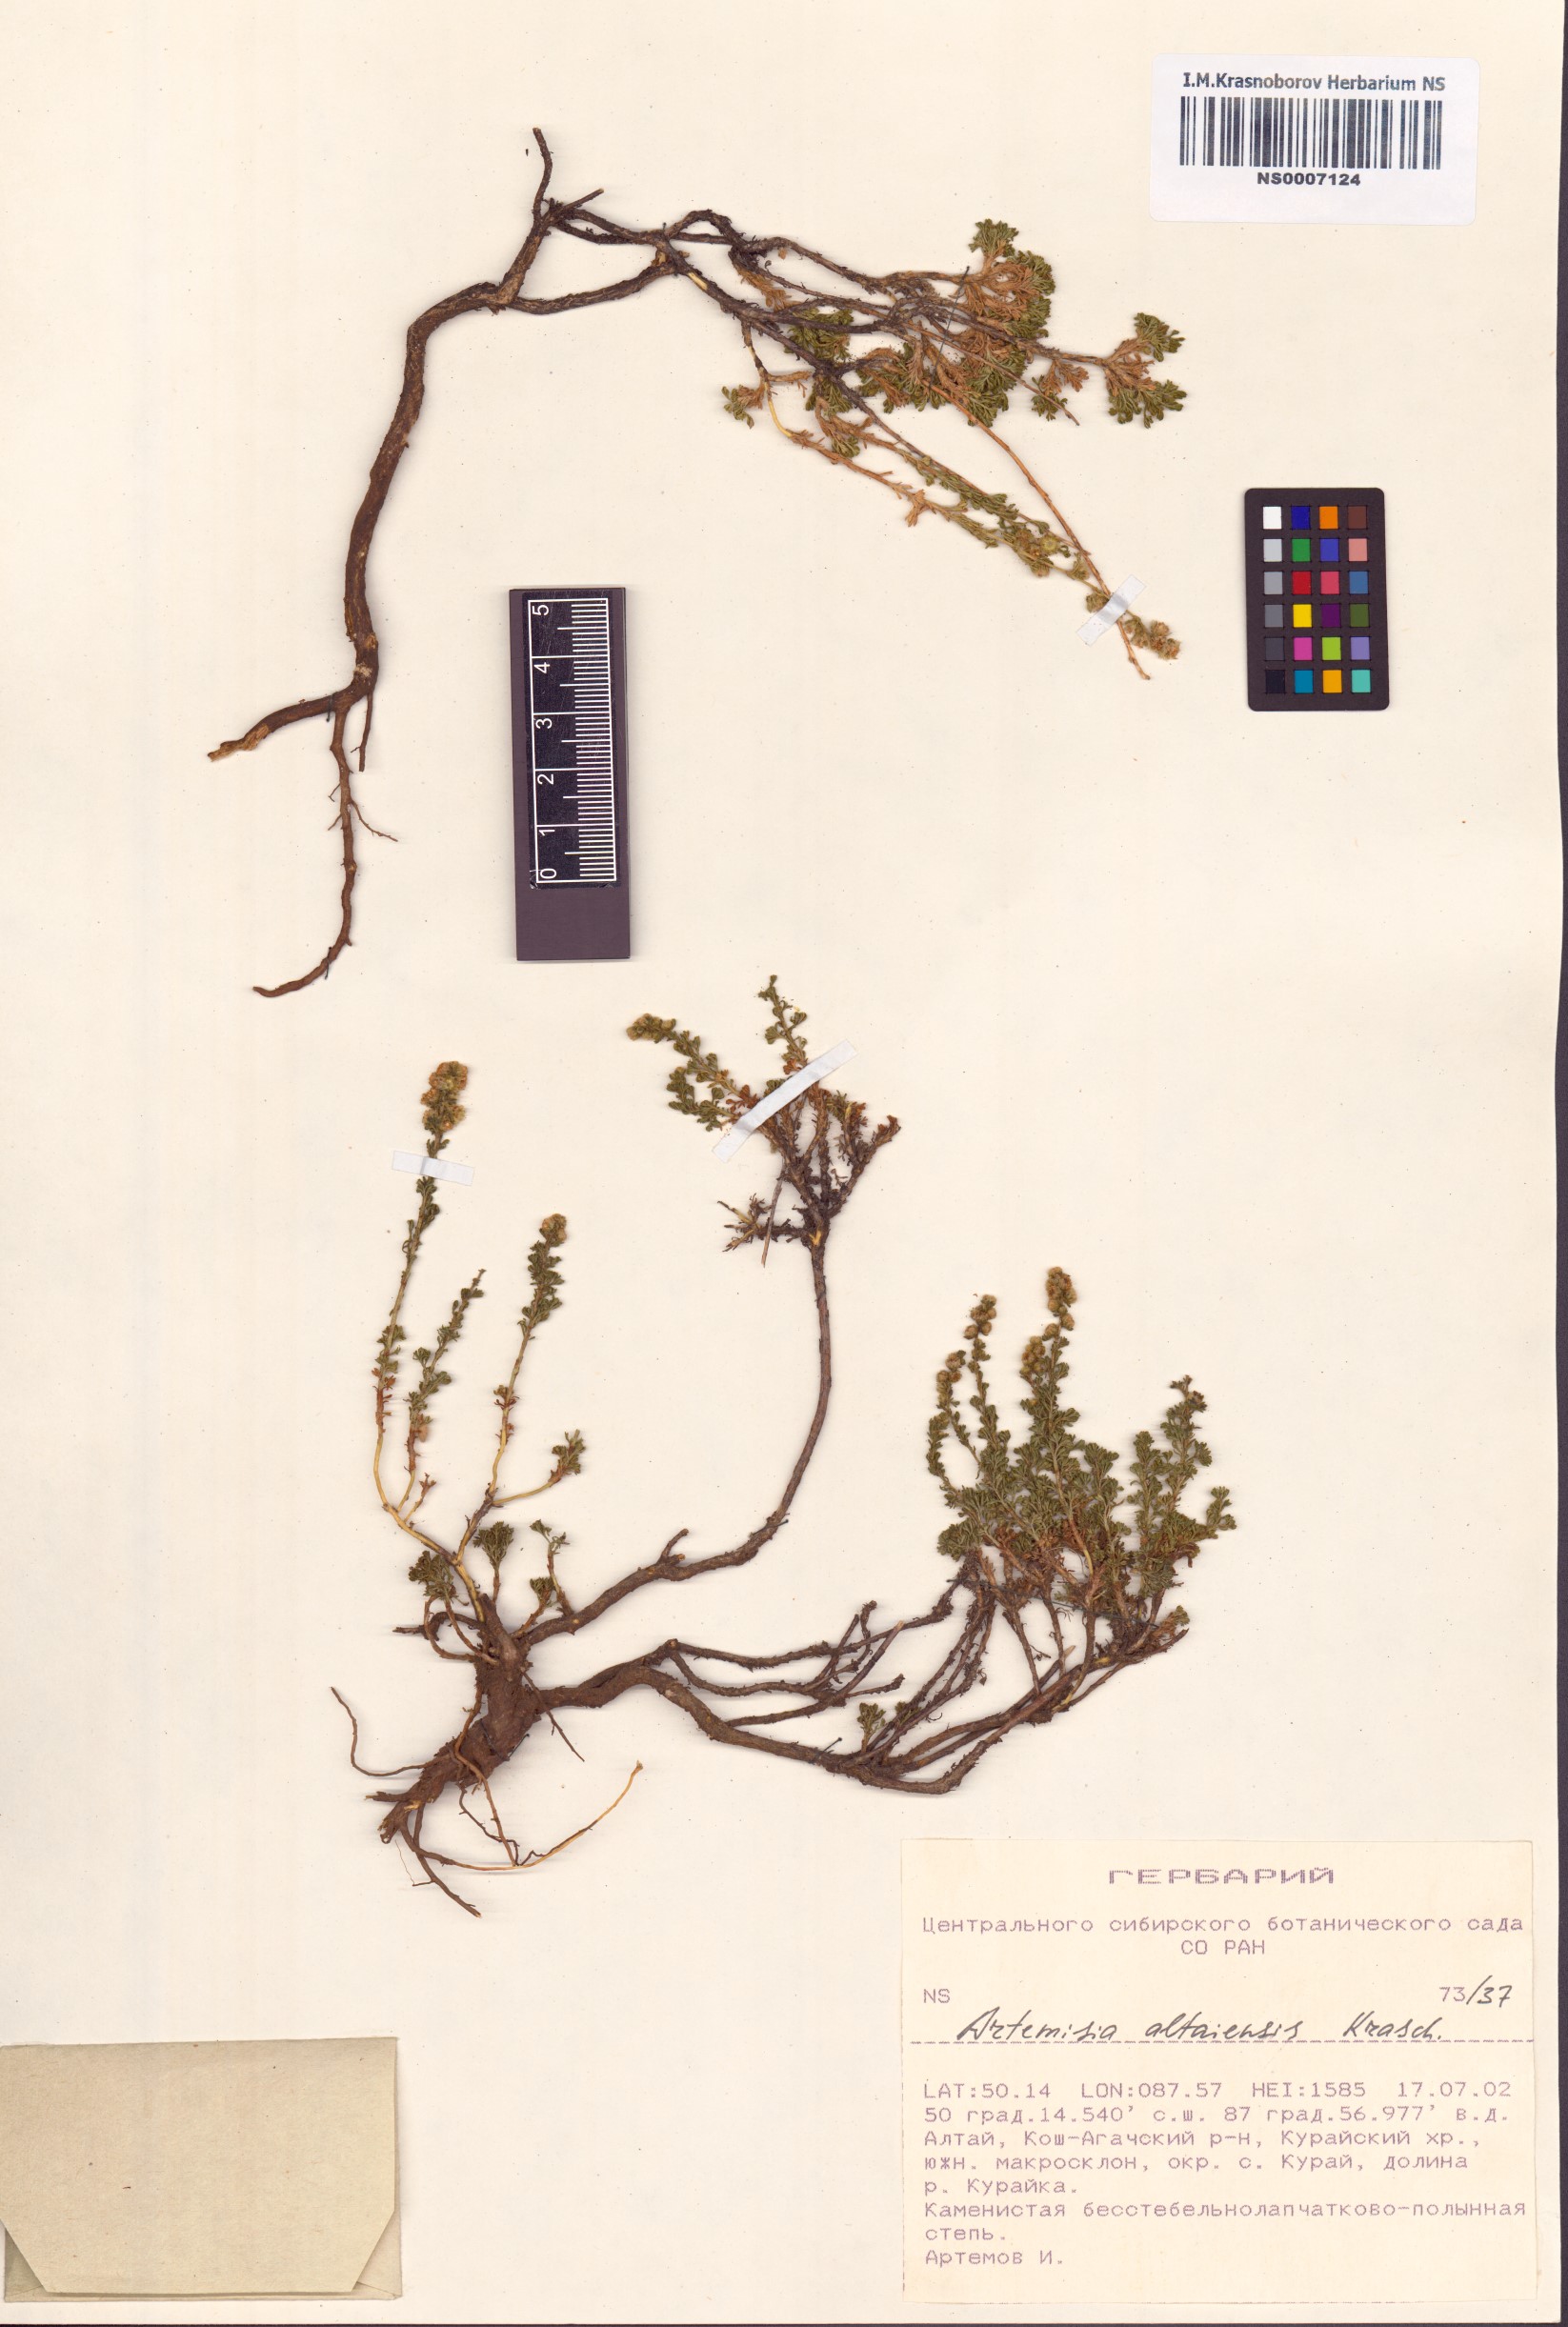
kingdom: Plantae
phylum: Tracheophyta
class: Magnoliopsida
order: Asterales
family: Asteraceae
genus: Artemisia
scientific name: Artemisia obtusiloba
